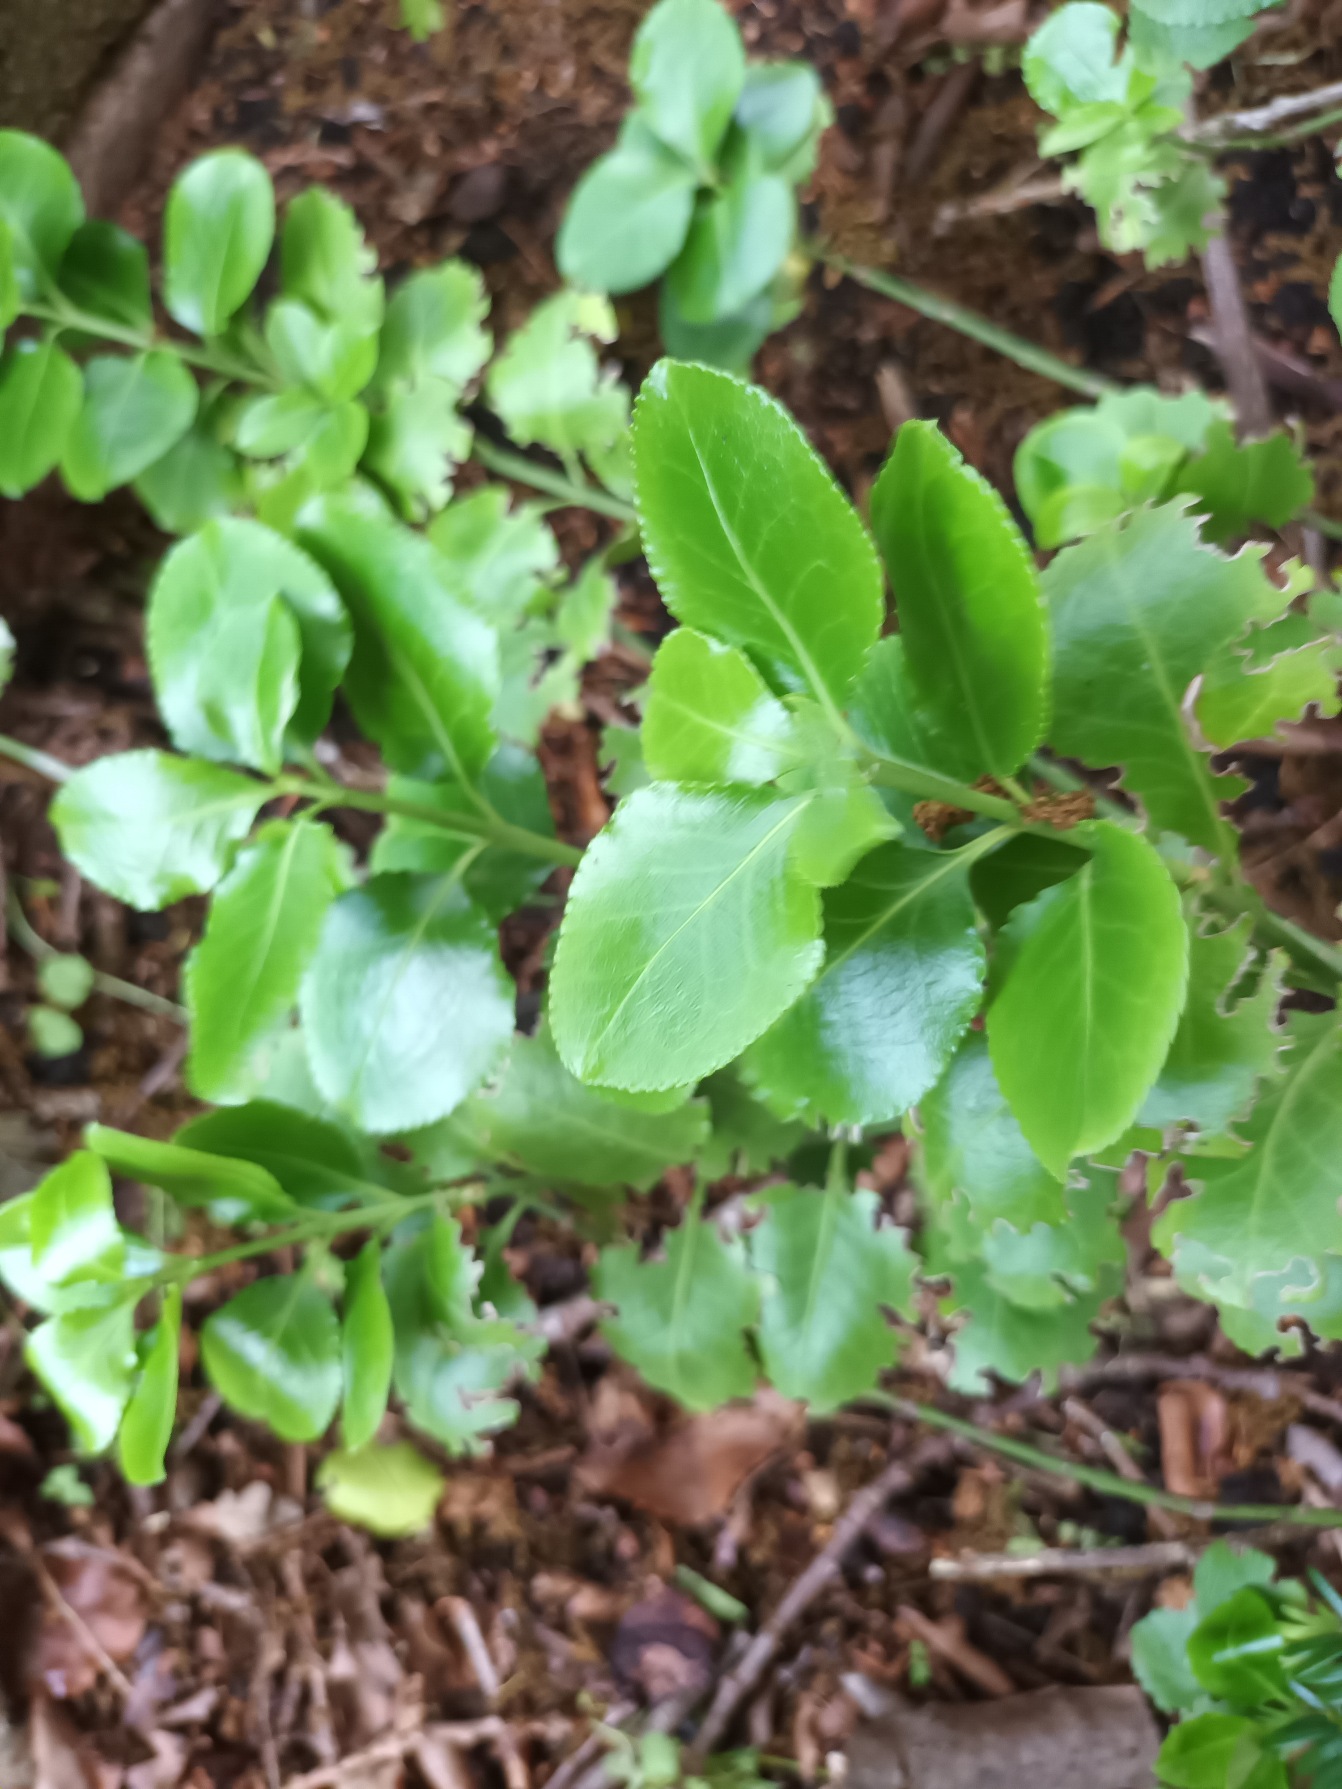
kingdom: Plantae
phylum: Tracheophyta
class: Magnoliopsida
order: Celastrales
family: Celastraceae
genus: Euonymus
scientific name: Euonymus japonicus
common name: Japansk benved
